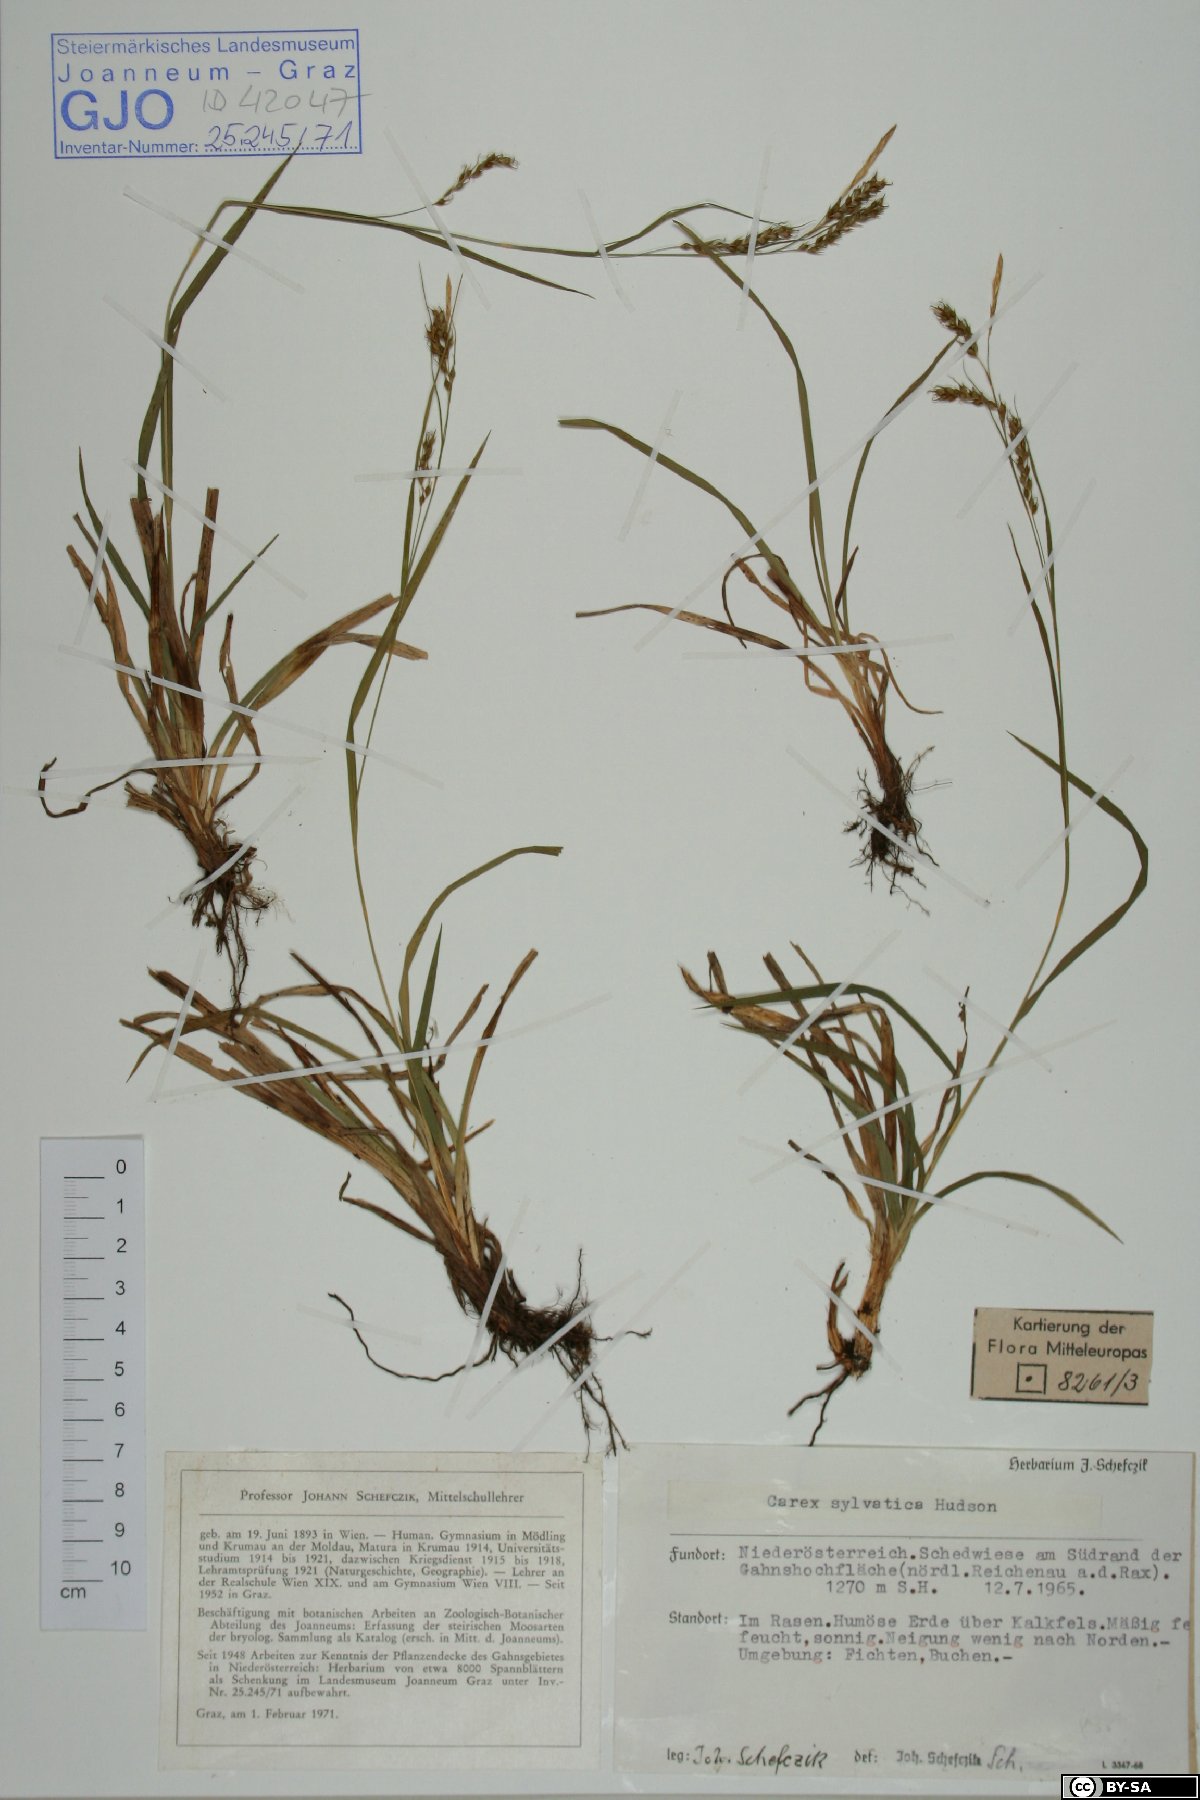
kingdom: Plantae
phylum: Tracheophyta
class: Liliopsida
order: Poales
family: Cyperaceae
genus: Carex
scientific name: Carex sylvatica
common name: Wood-sedge
